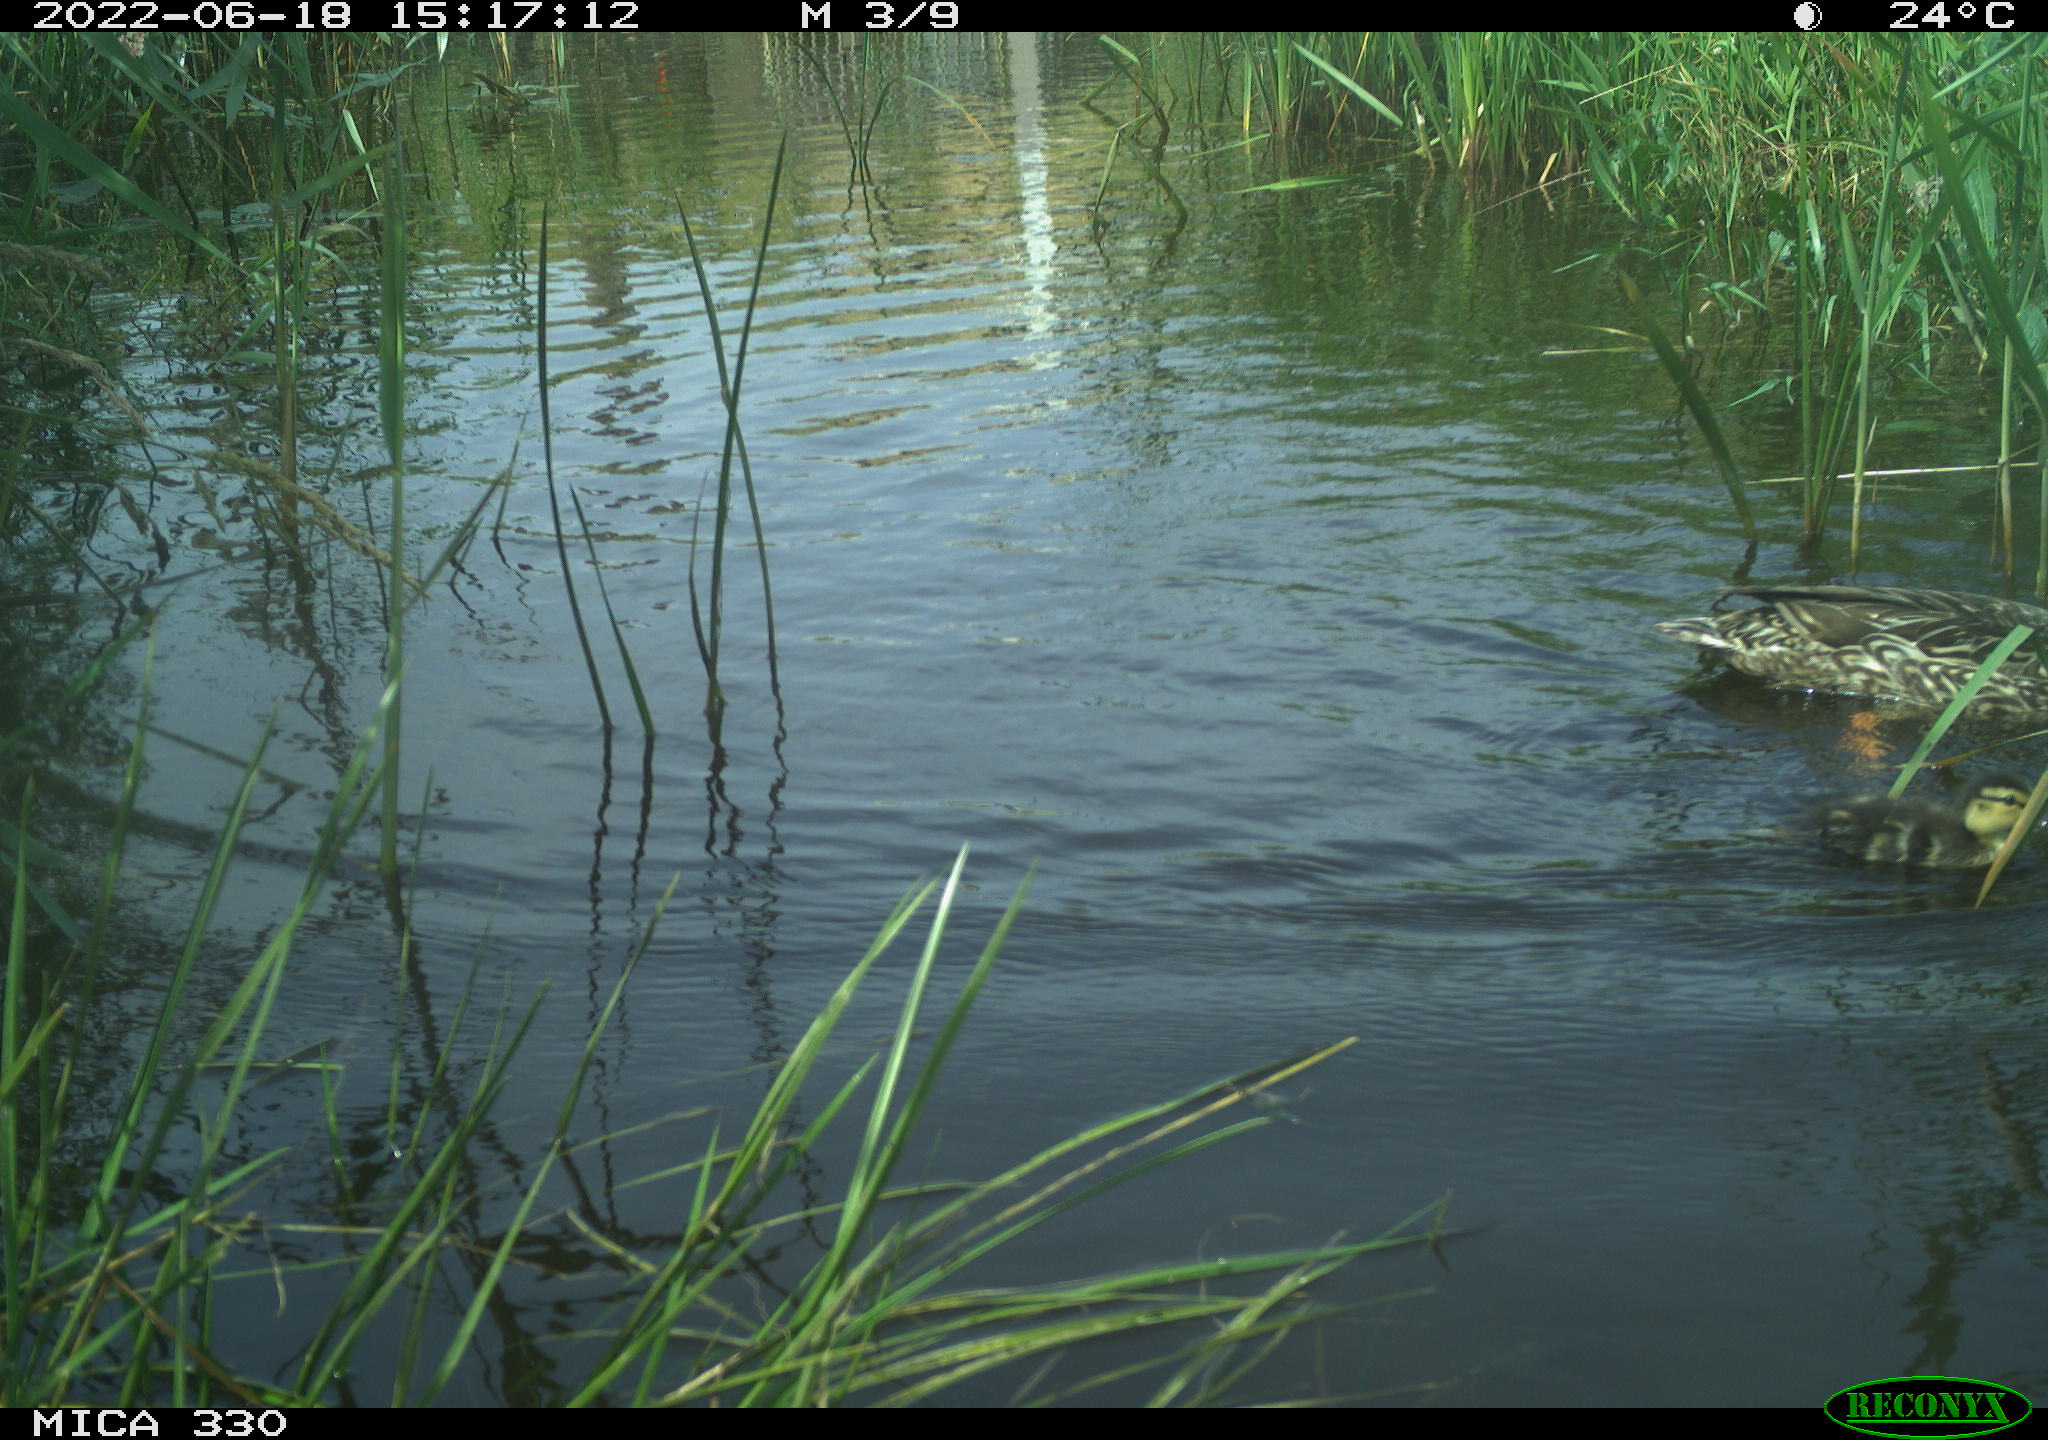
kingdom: Animalia
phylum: Chordata
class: Aves
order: Anseriformes
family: Anatidae
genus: Mareca
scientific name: Mareca strepera
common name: Gadwall
